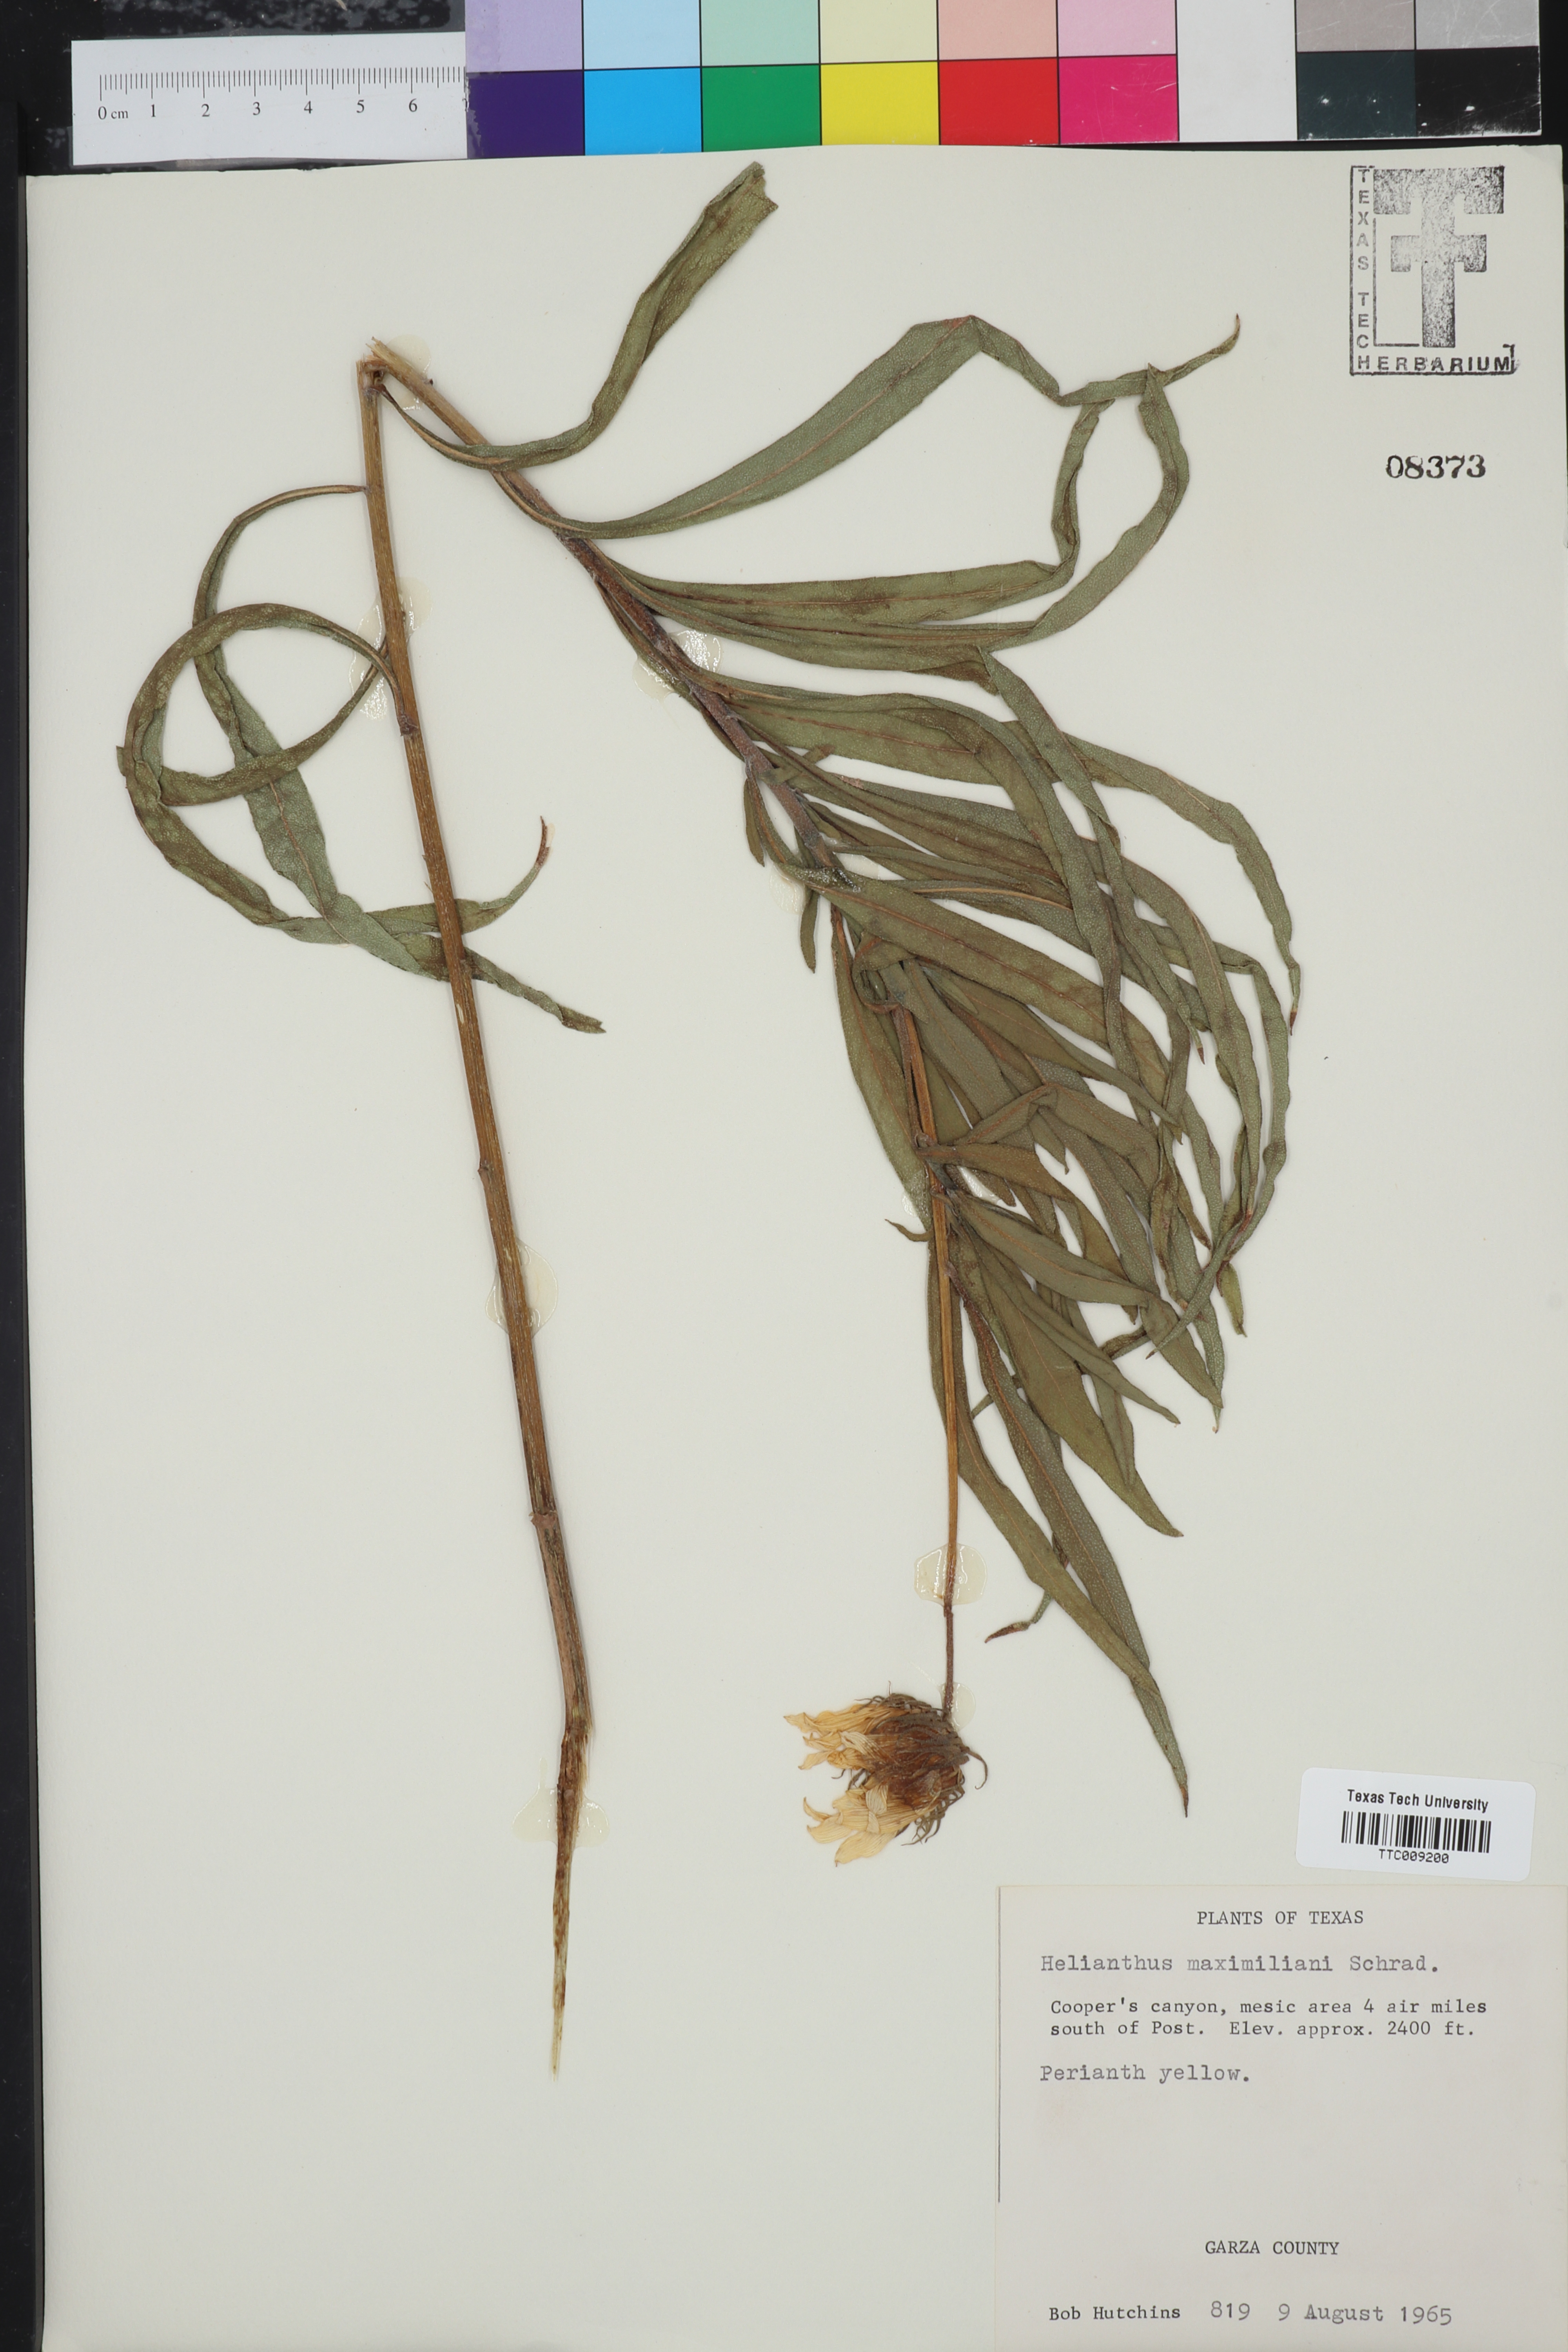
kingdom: Plantae
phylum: Tracheophyta
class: Magnoliopsida
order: Asterales
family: Asteraceae
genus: Helianthus
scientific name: Helianthus maximiliani
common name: Maximilian's sunflower
